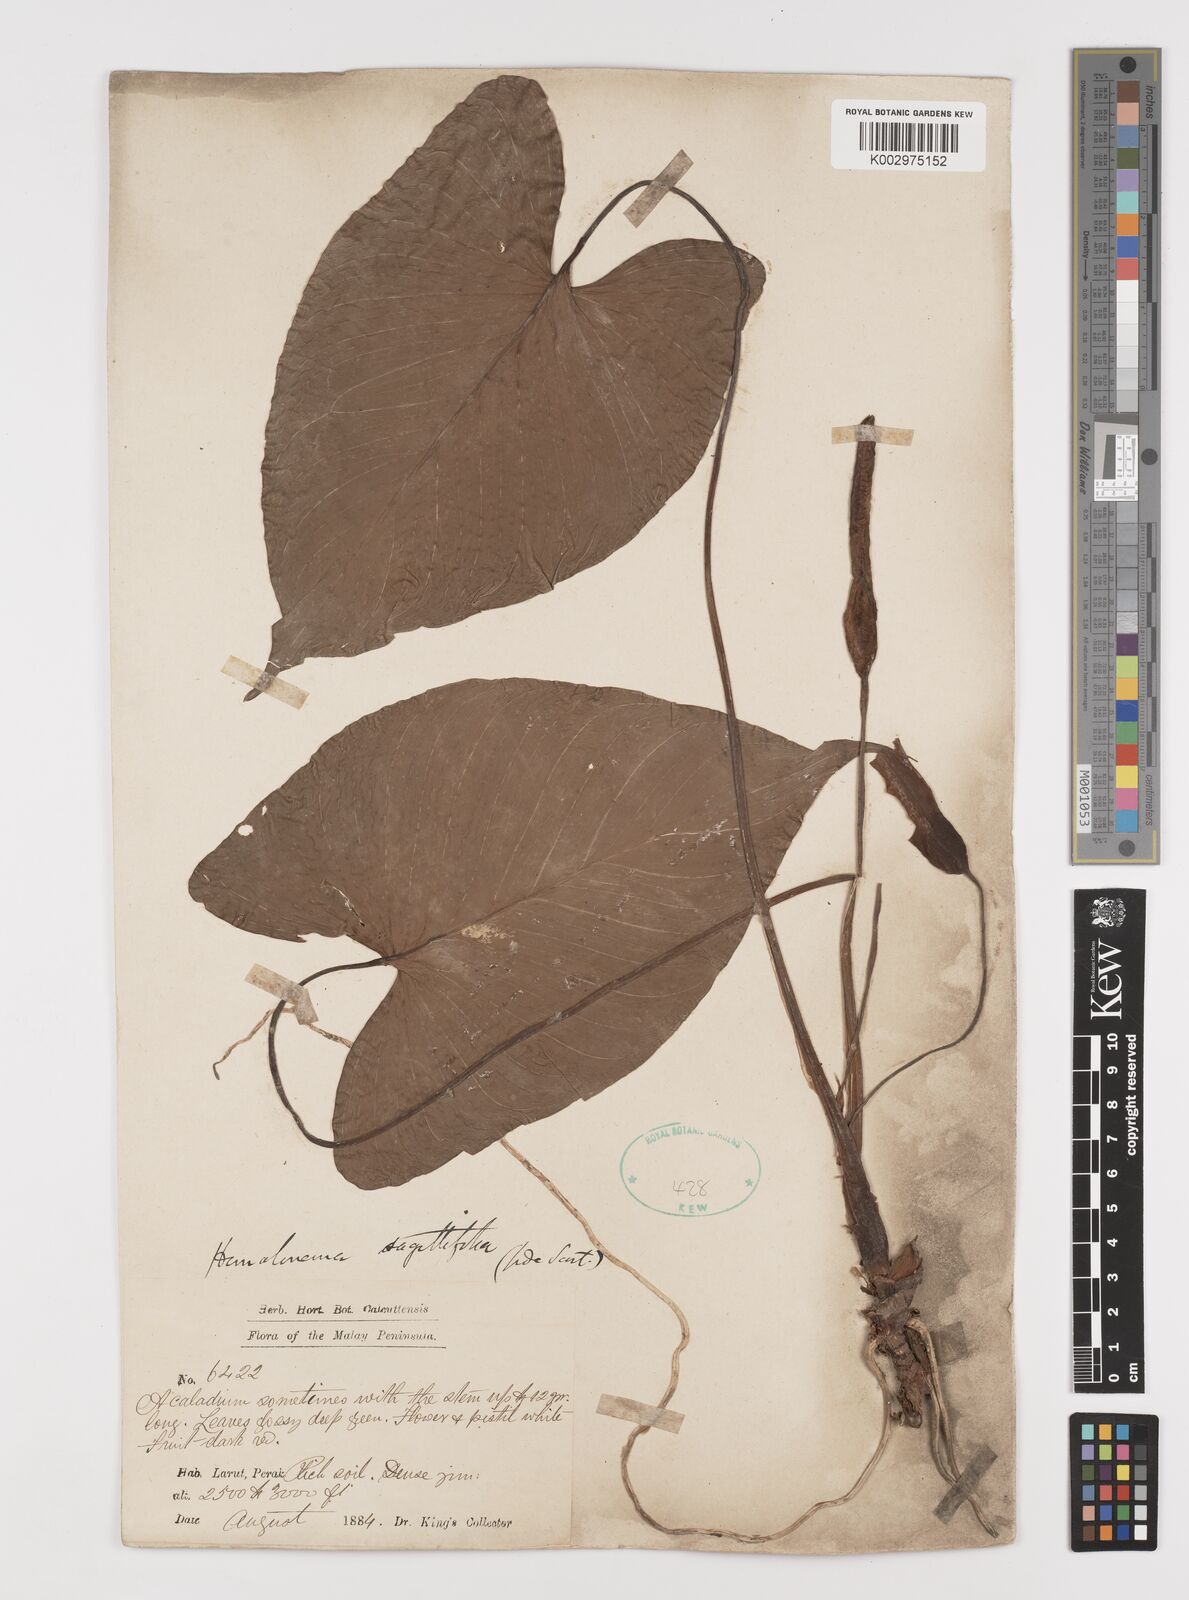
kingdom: Plantae
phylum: Tracheophyta
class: Liliopsida
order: Alismatales
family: Araceae
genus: Homalomena
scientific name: Homalomena rostrata
